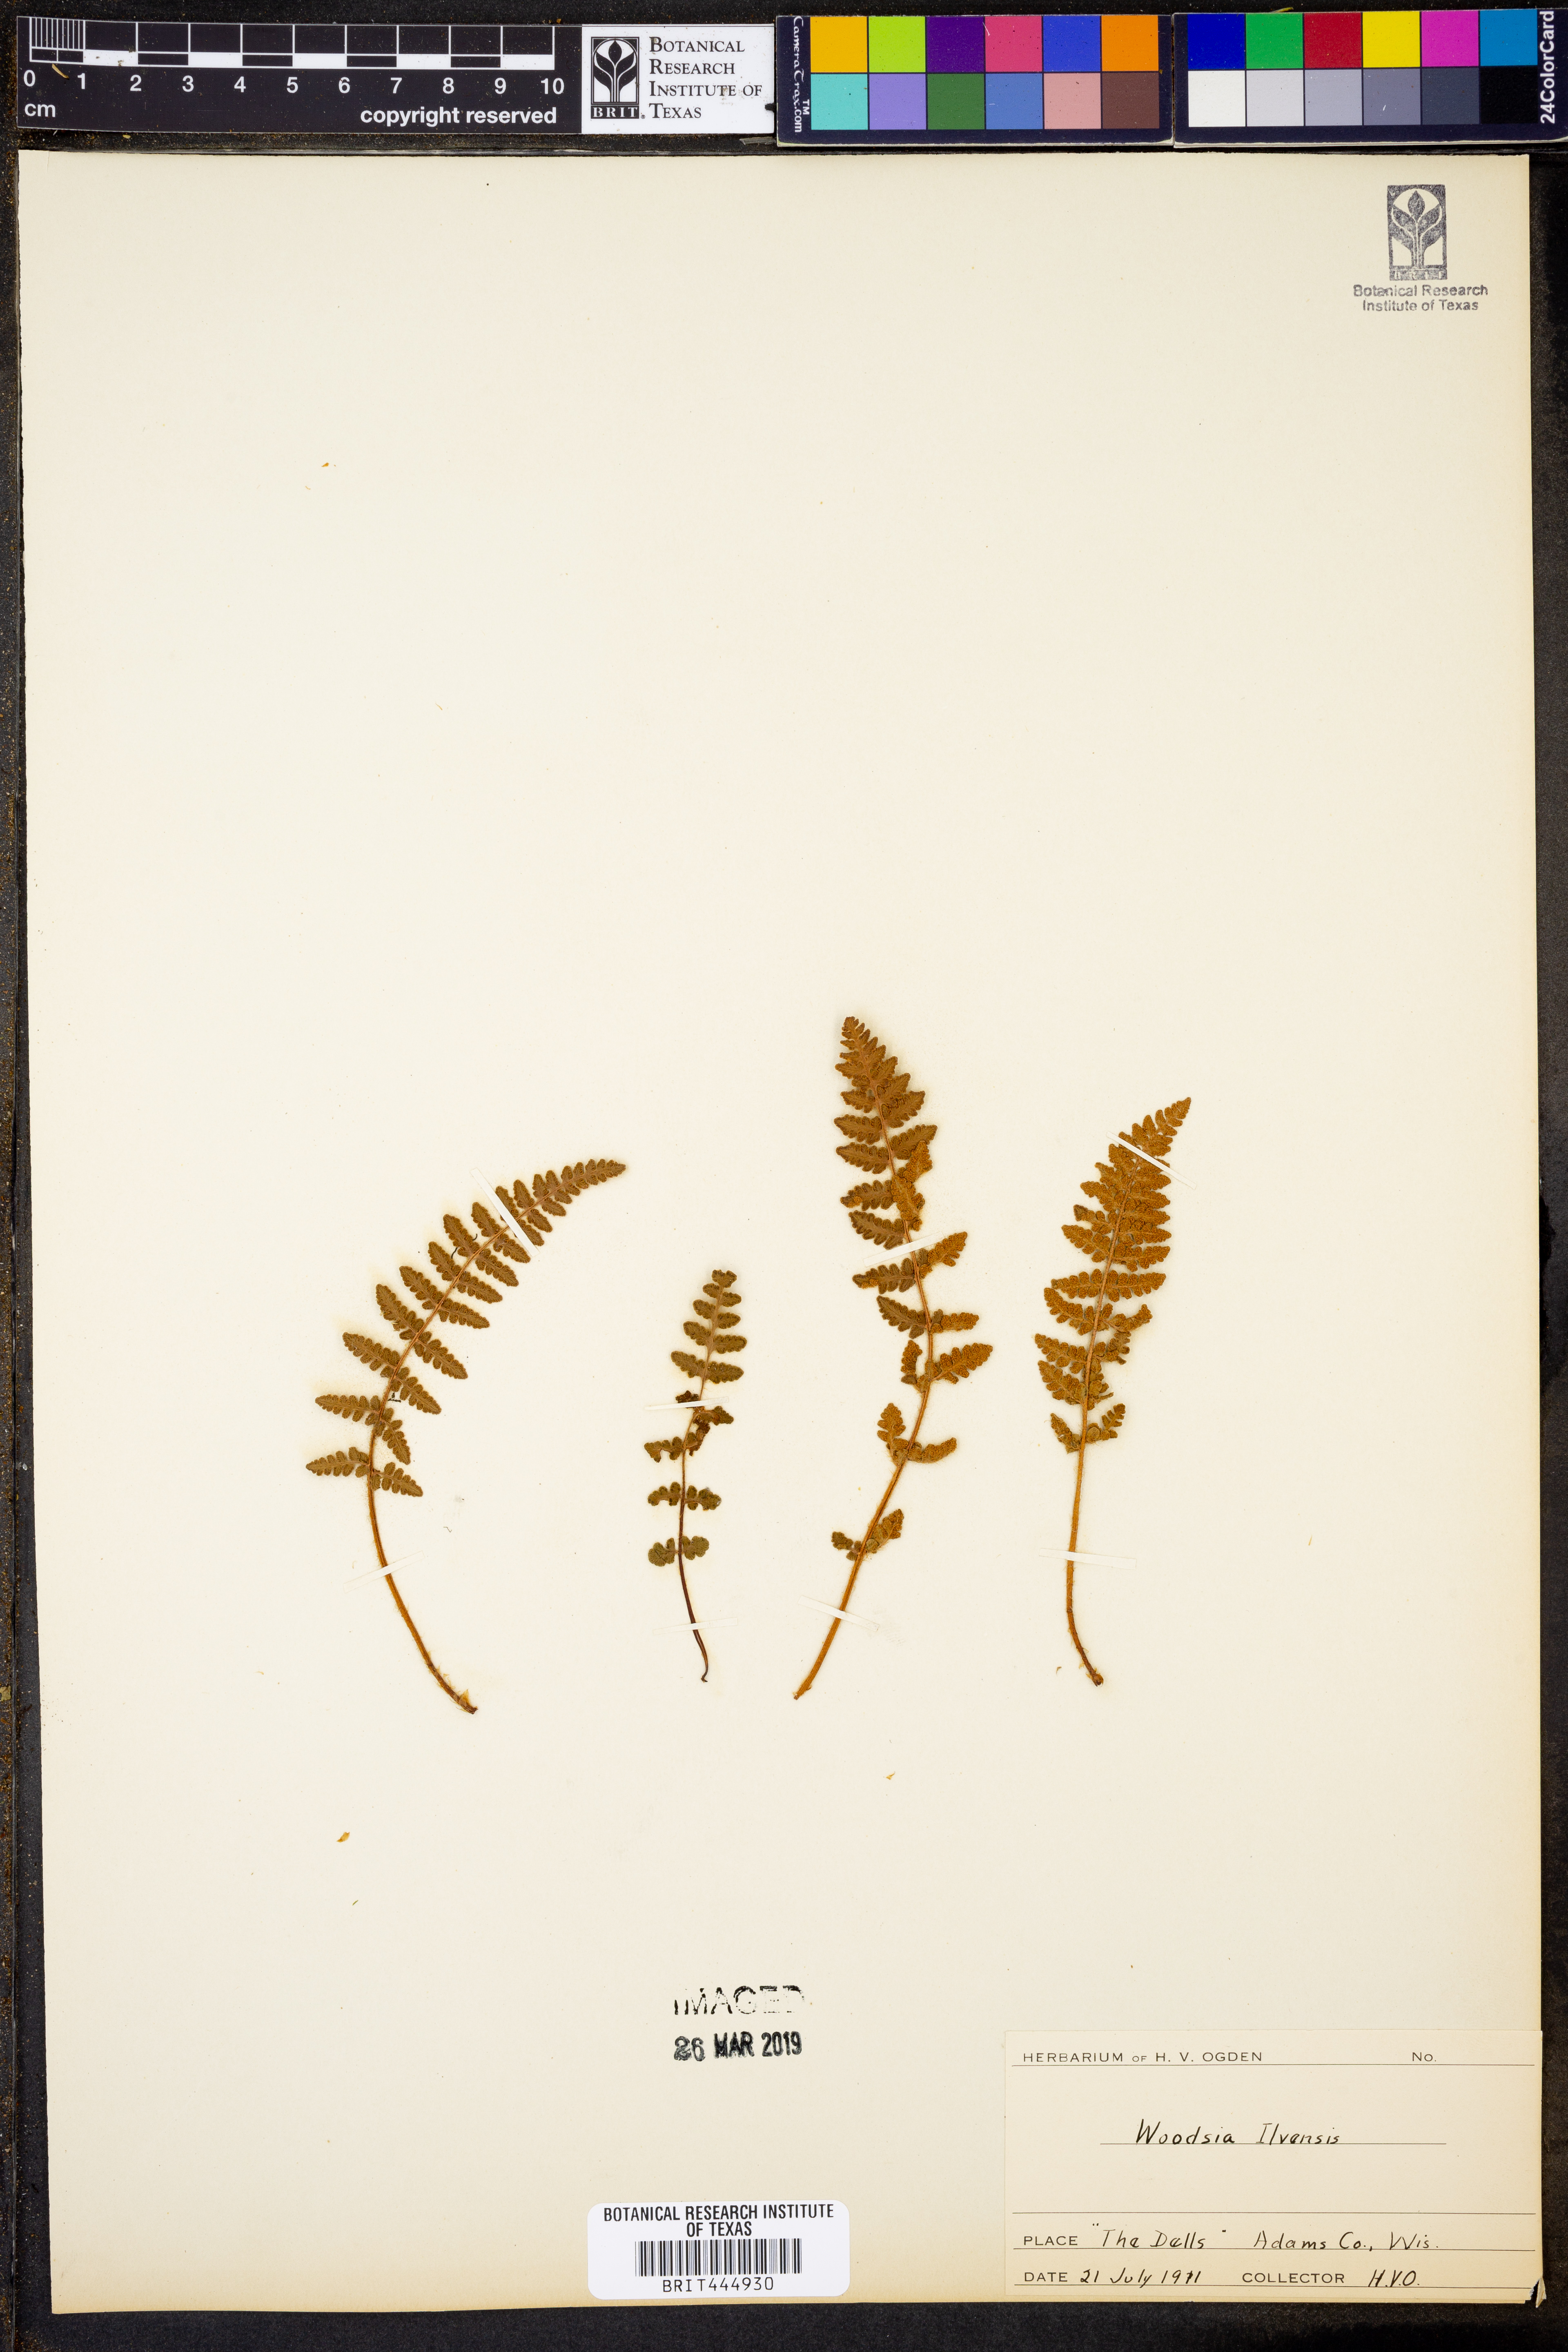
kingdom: Plantae
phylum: Tracheophyta
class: Polypodiopsida
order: Polypodiales
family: Woodsiaceae
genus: Woodsia
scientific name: Woodsia ilvensis
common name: Fragrant woodsia
